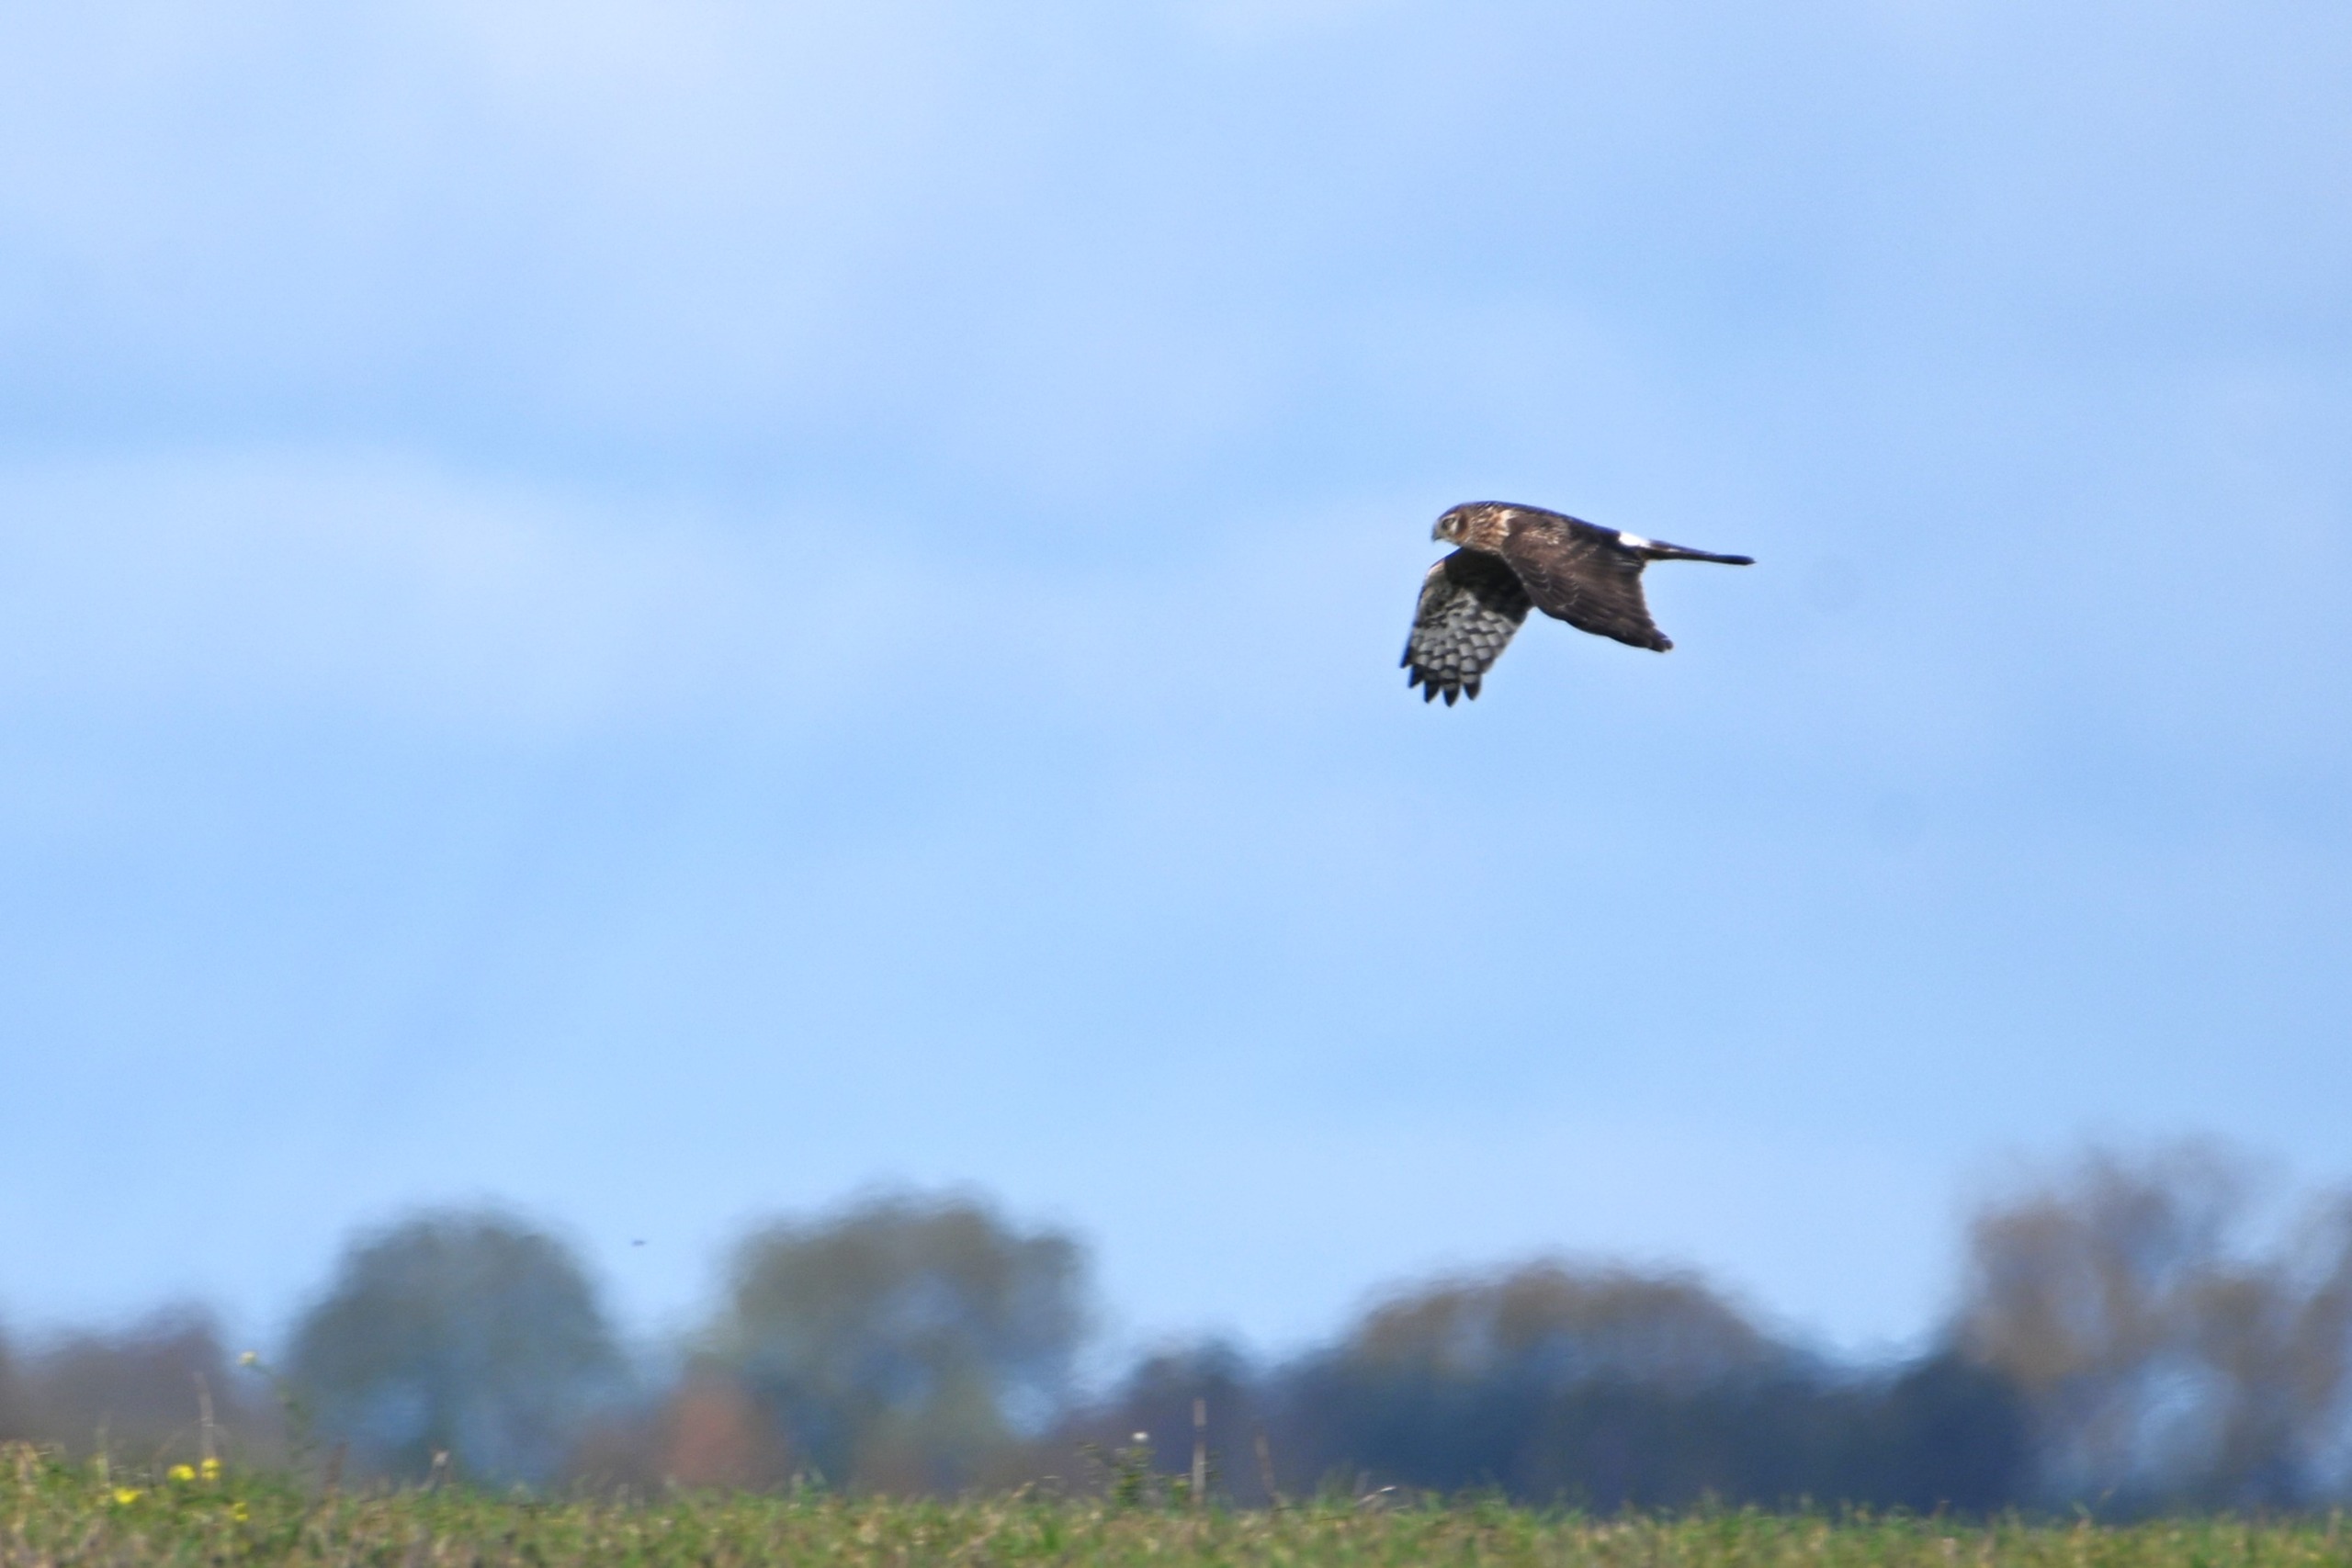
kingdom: Animalia
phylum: Chordata
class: Aves
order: Accipitriformes
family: Accipitridae
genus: Circus
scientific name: Circus cyaneus
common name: Blå kærhøg
